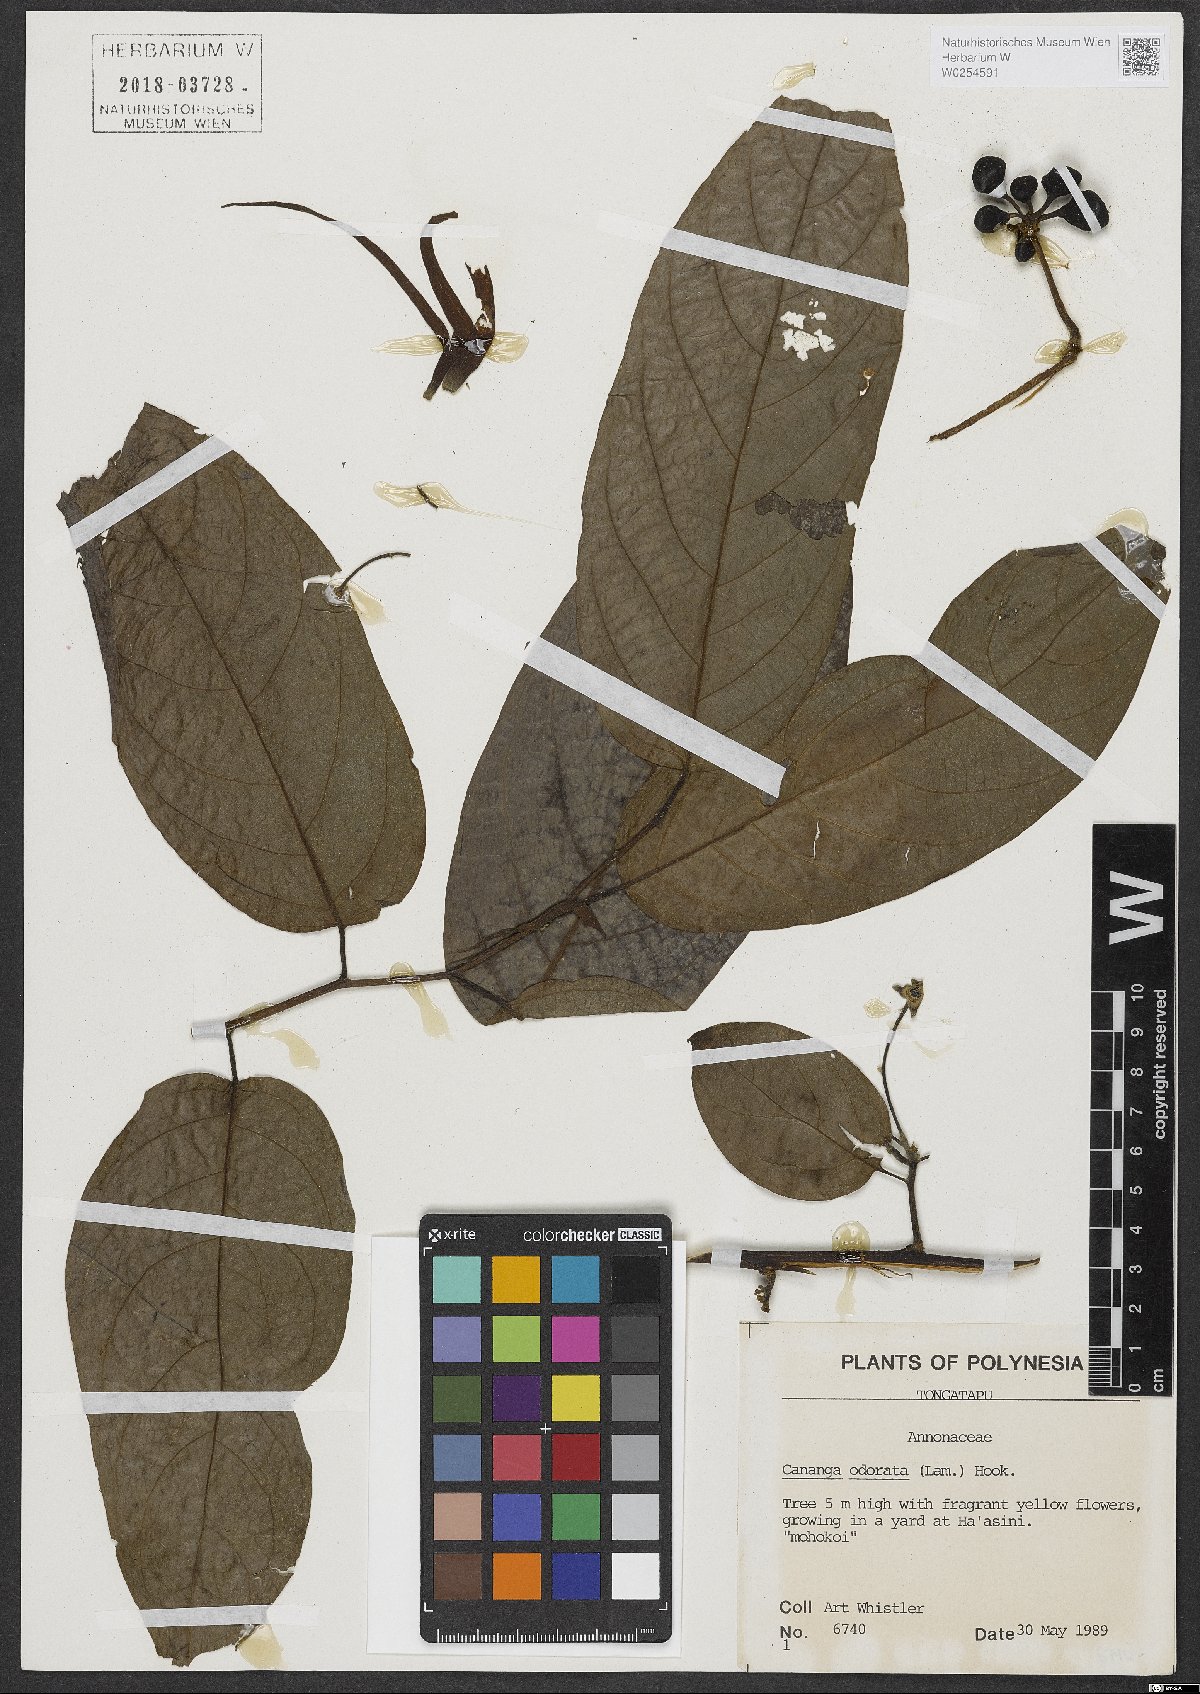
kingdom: Plantae
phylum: Tracheophyta
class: Magnoliopsida
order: Magnoliales
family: Annonaceae
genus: Cananga
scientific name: Cananga odorata
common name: Cananga tree
